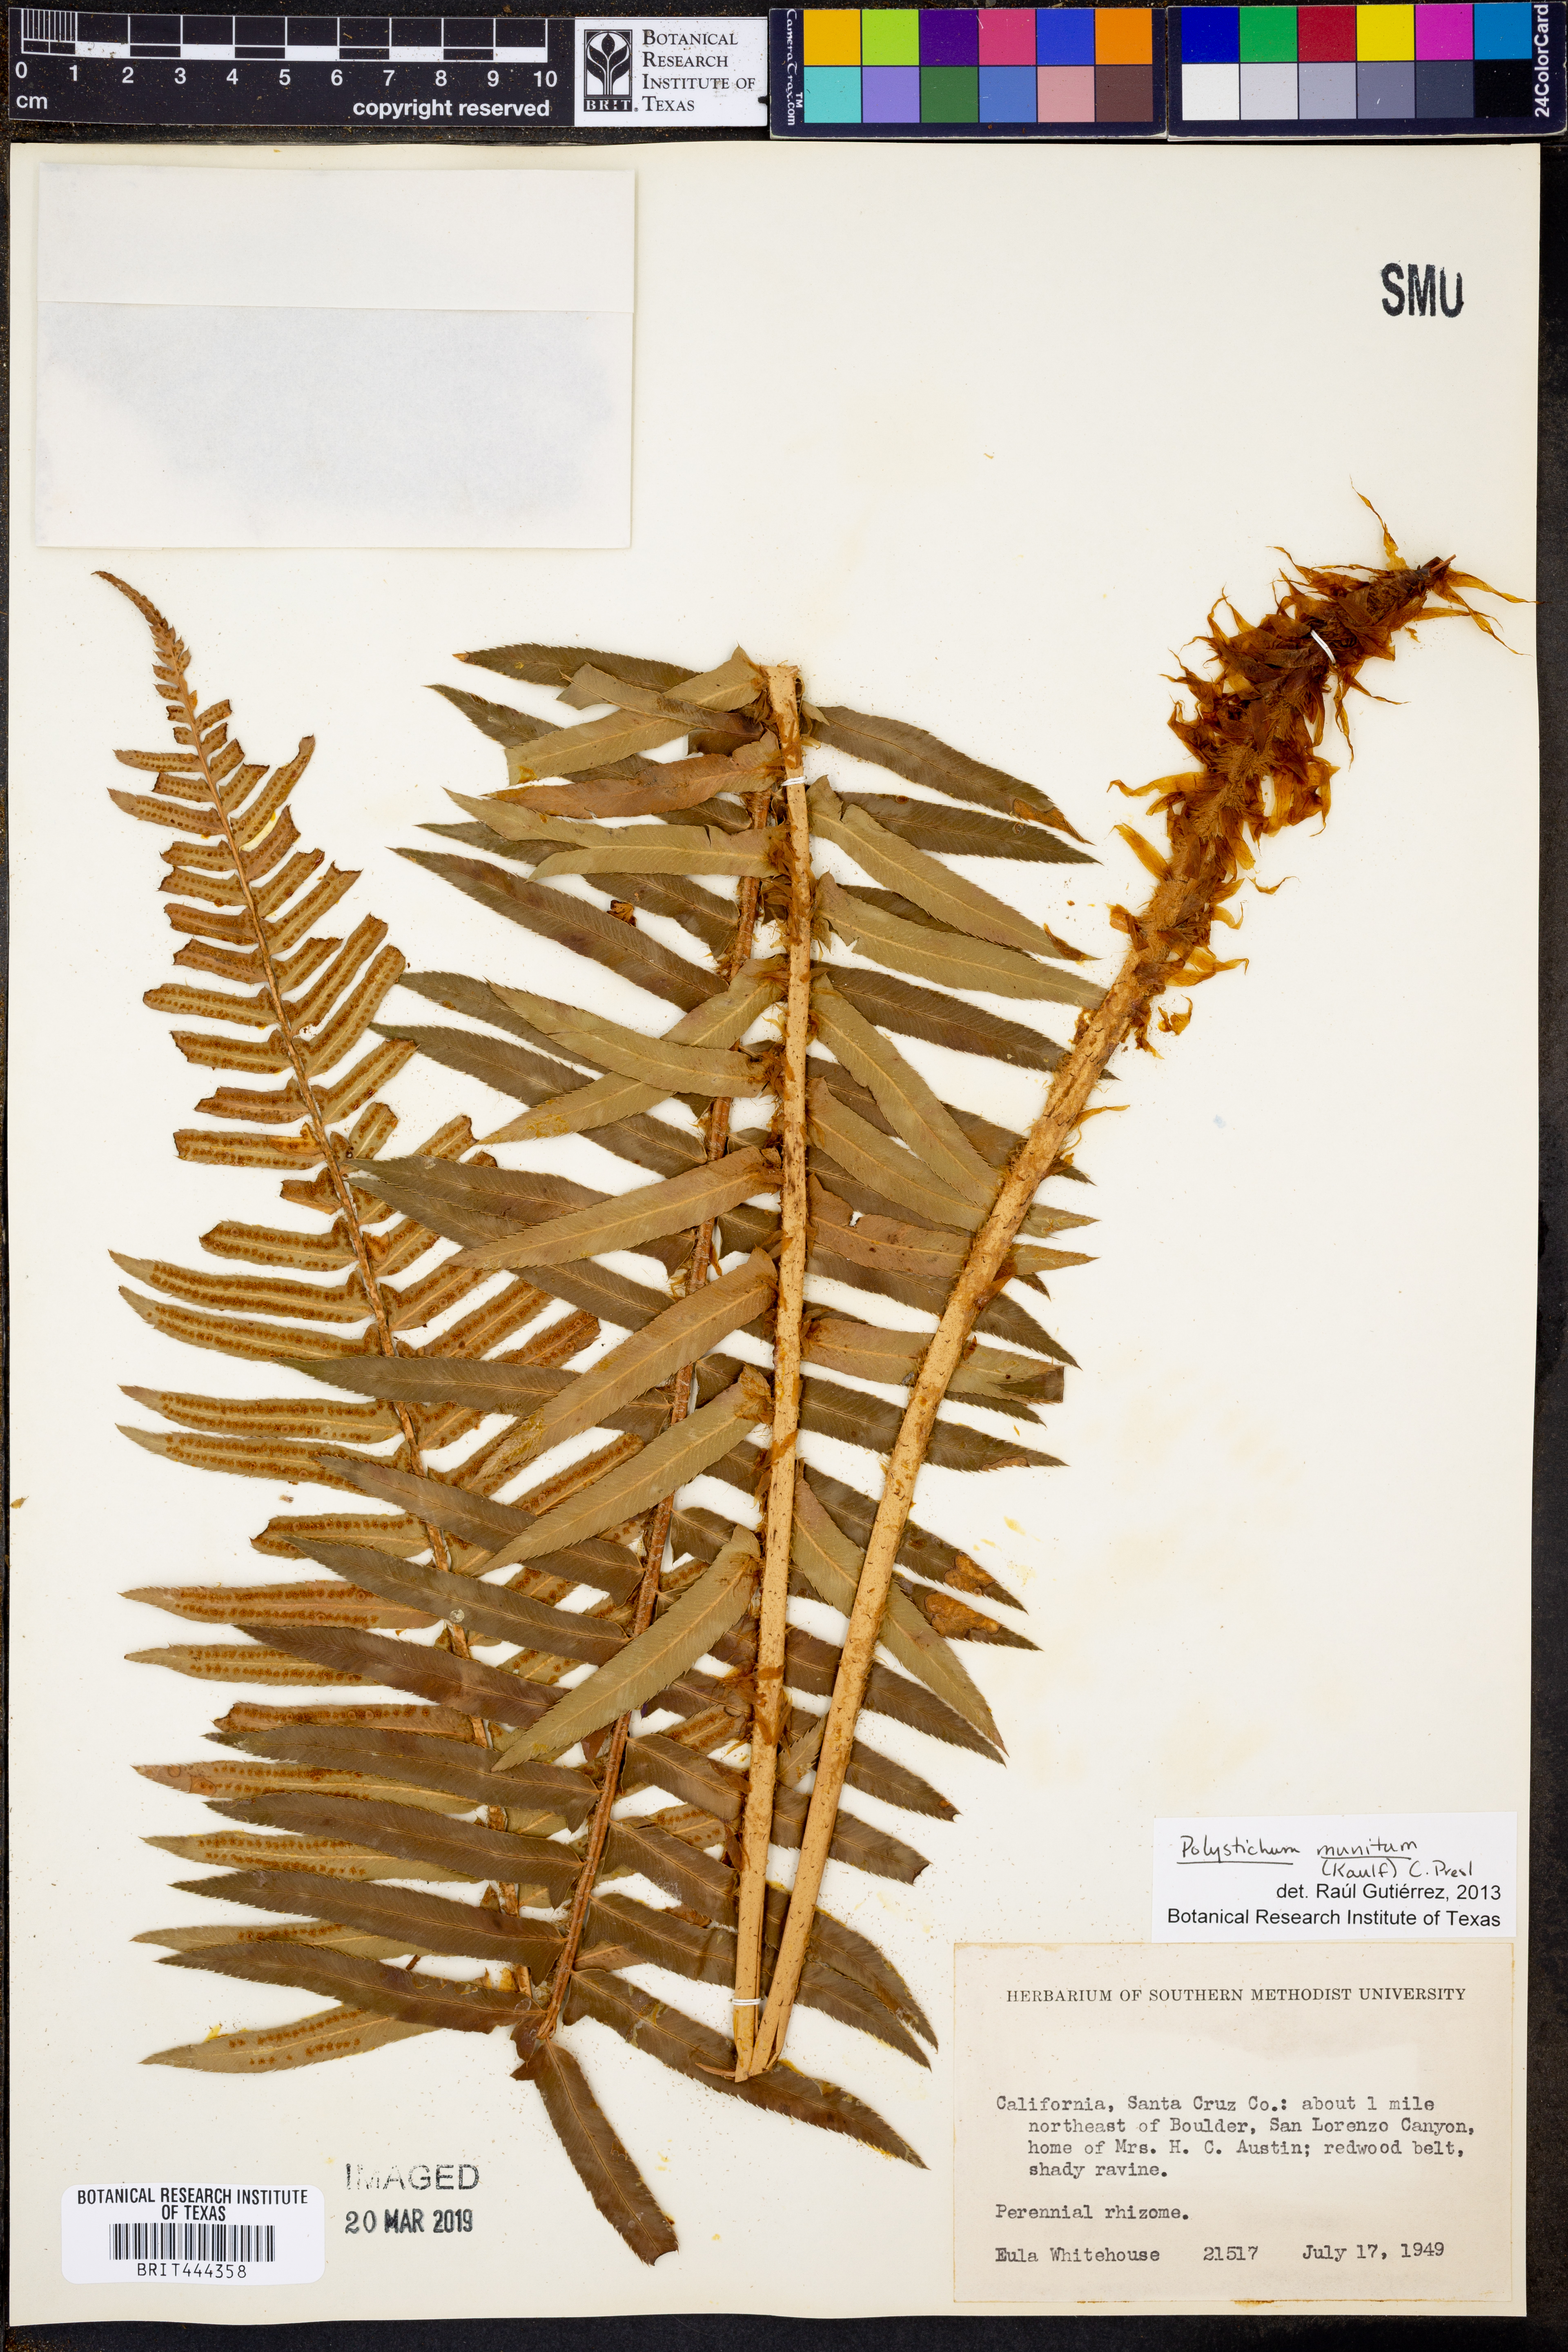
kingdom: Plantae
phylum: Tracheophyta
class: Polypodiopsida
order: Polypodiales
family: Dryopteridaceae
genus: Polystichum
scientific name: Polystichum munitum
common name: Western sword-fern
